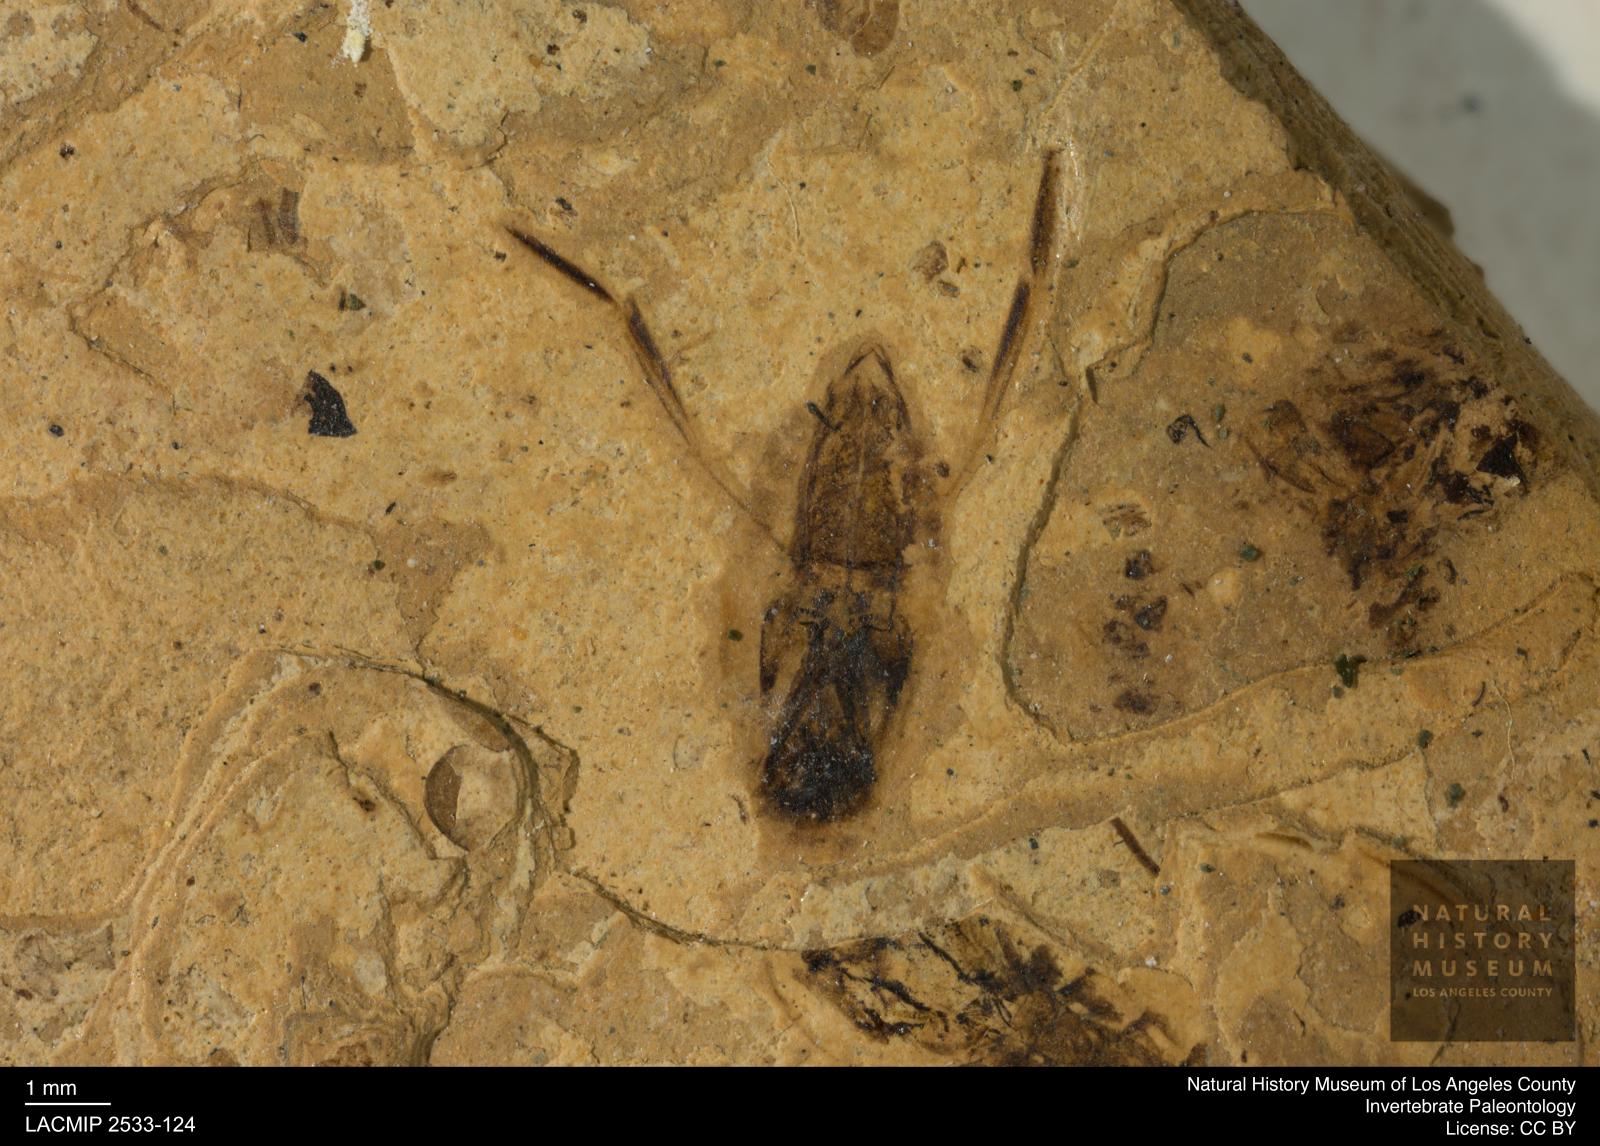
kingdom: Animalia
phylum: Arthropoda
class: Insecta
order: Hemiptera
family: Notonectidae
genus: Anisops
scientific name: Anisops Notonecta heydeni
